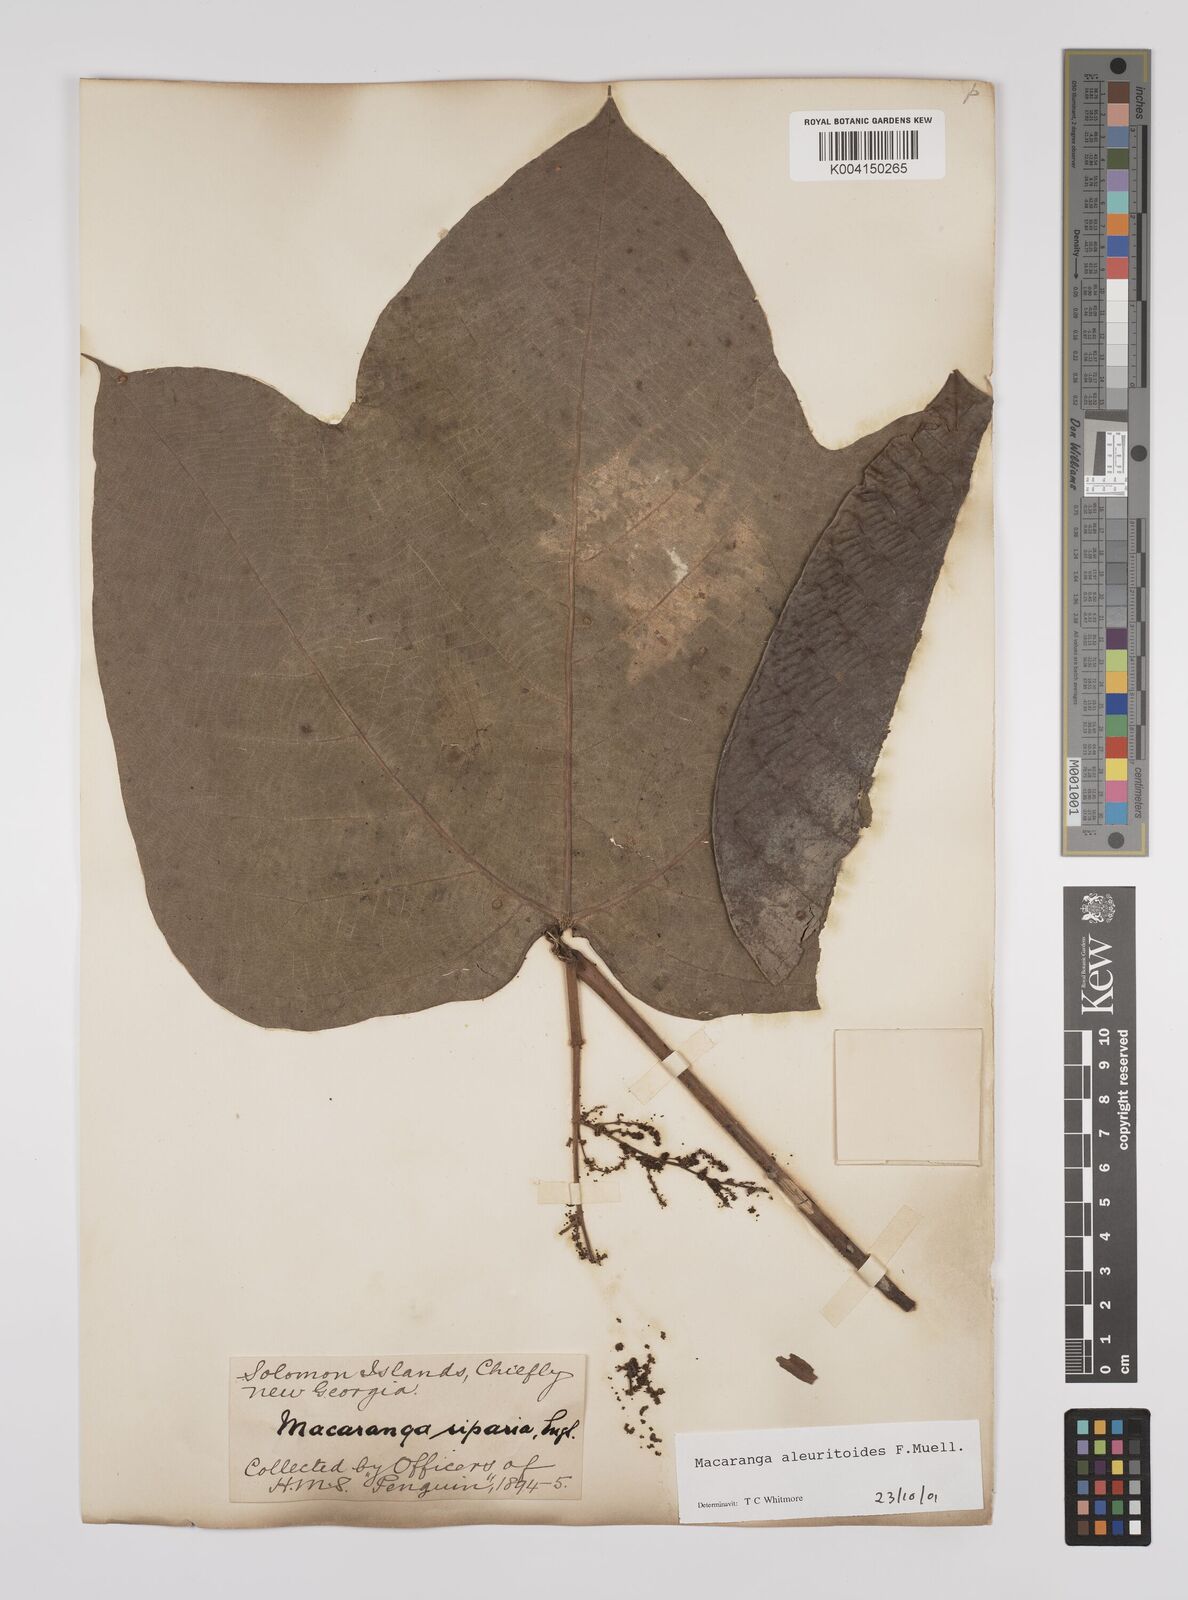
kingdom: Plantae
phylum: Tracheophyta
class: Magnoliopsida
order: Malpighiales
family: Euphorbiaceae
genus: Macaranga
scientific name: Macaranga aleuritoides
